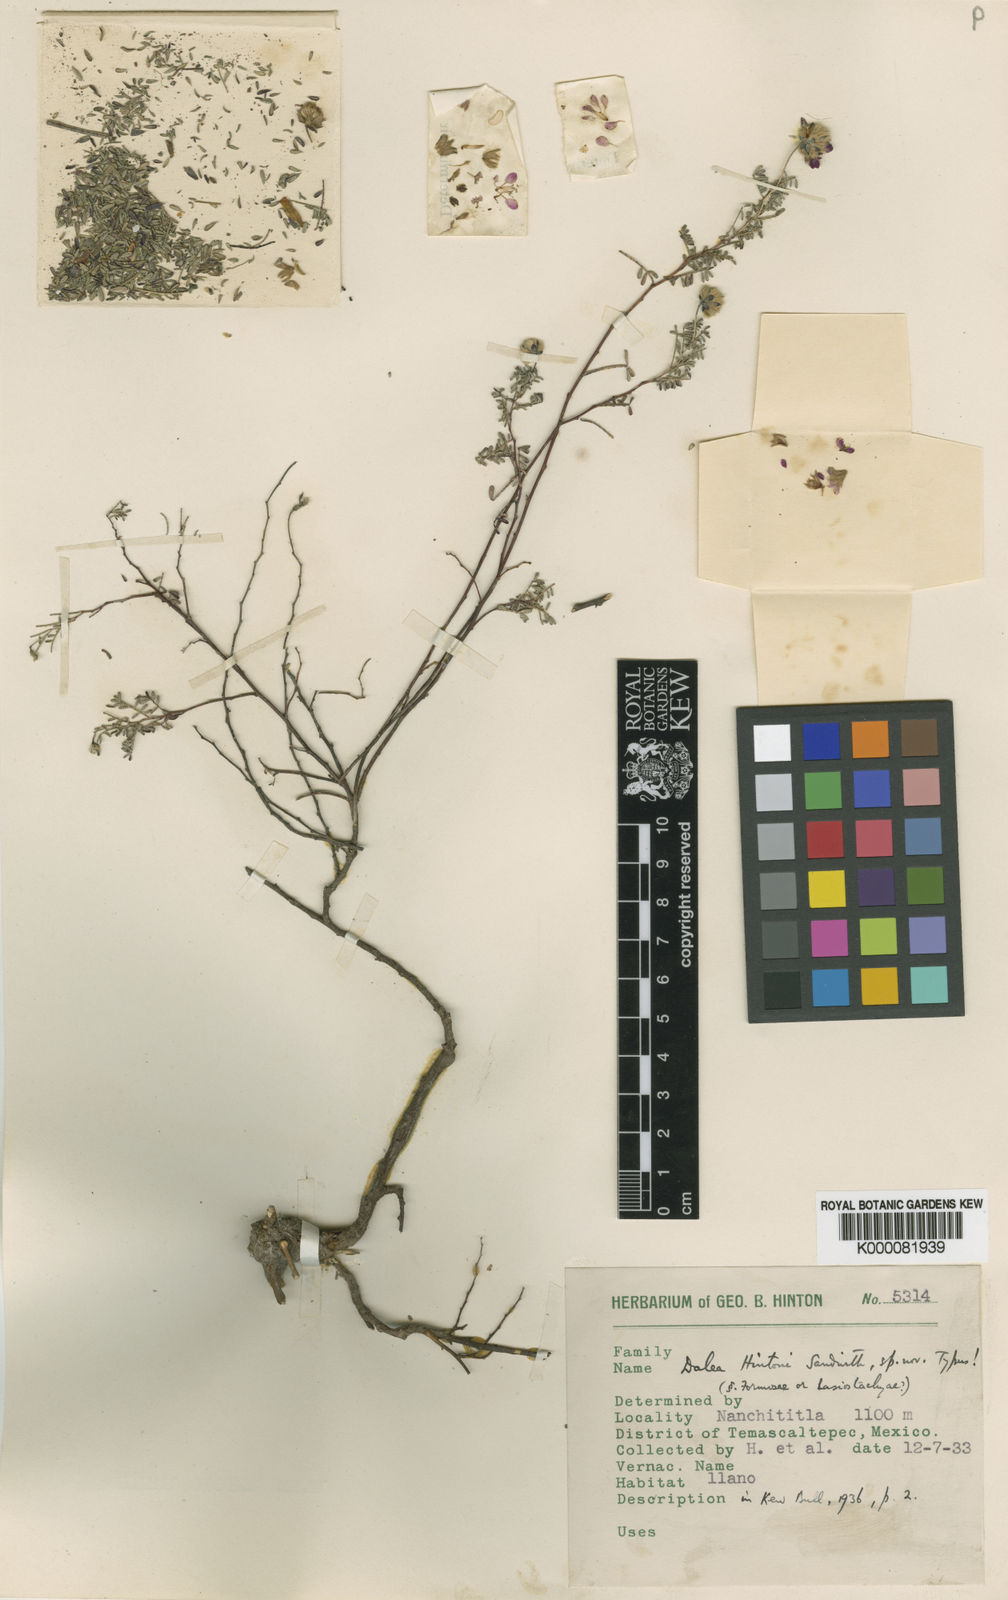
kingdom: Plantae
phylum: Tracheophyta
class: Magnoliopsida
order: Fabales
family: Fabaceae
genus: Dalea
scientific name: Dalea hintonii
